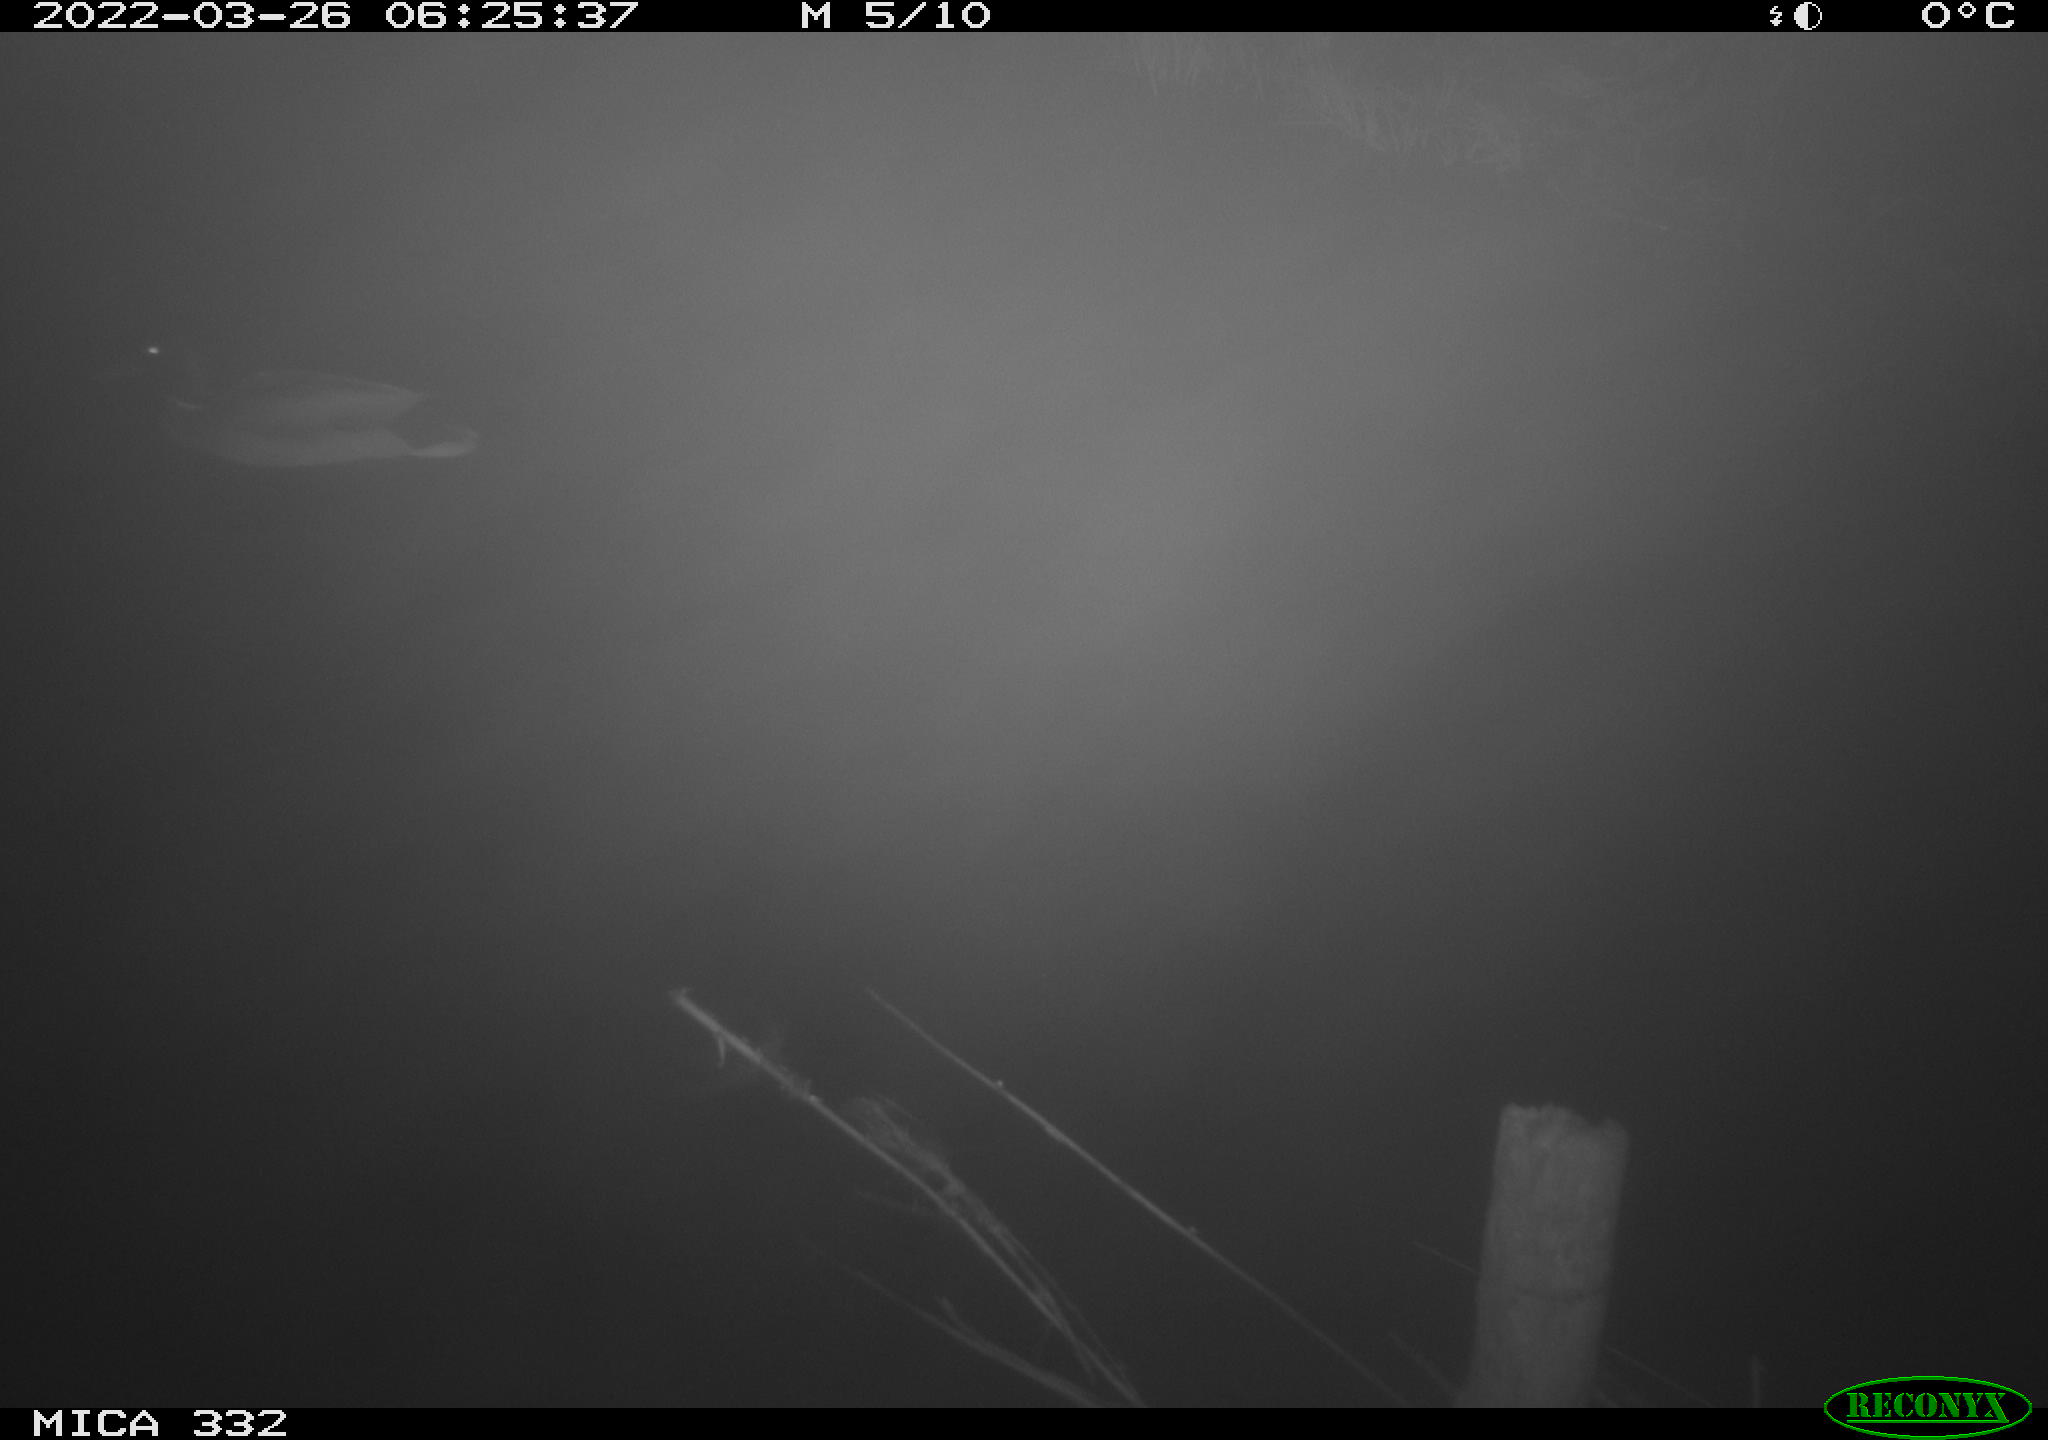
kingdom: Animalia
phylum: Chordata
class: Aves
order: Anseriformes
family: Anatidae
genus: Anas
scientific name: Anas platyrhynchos
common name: Mallard
